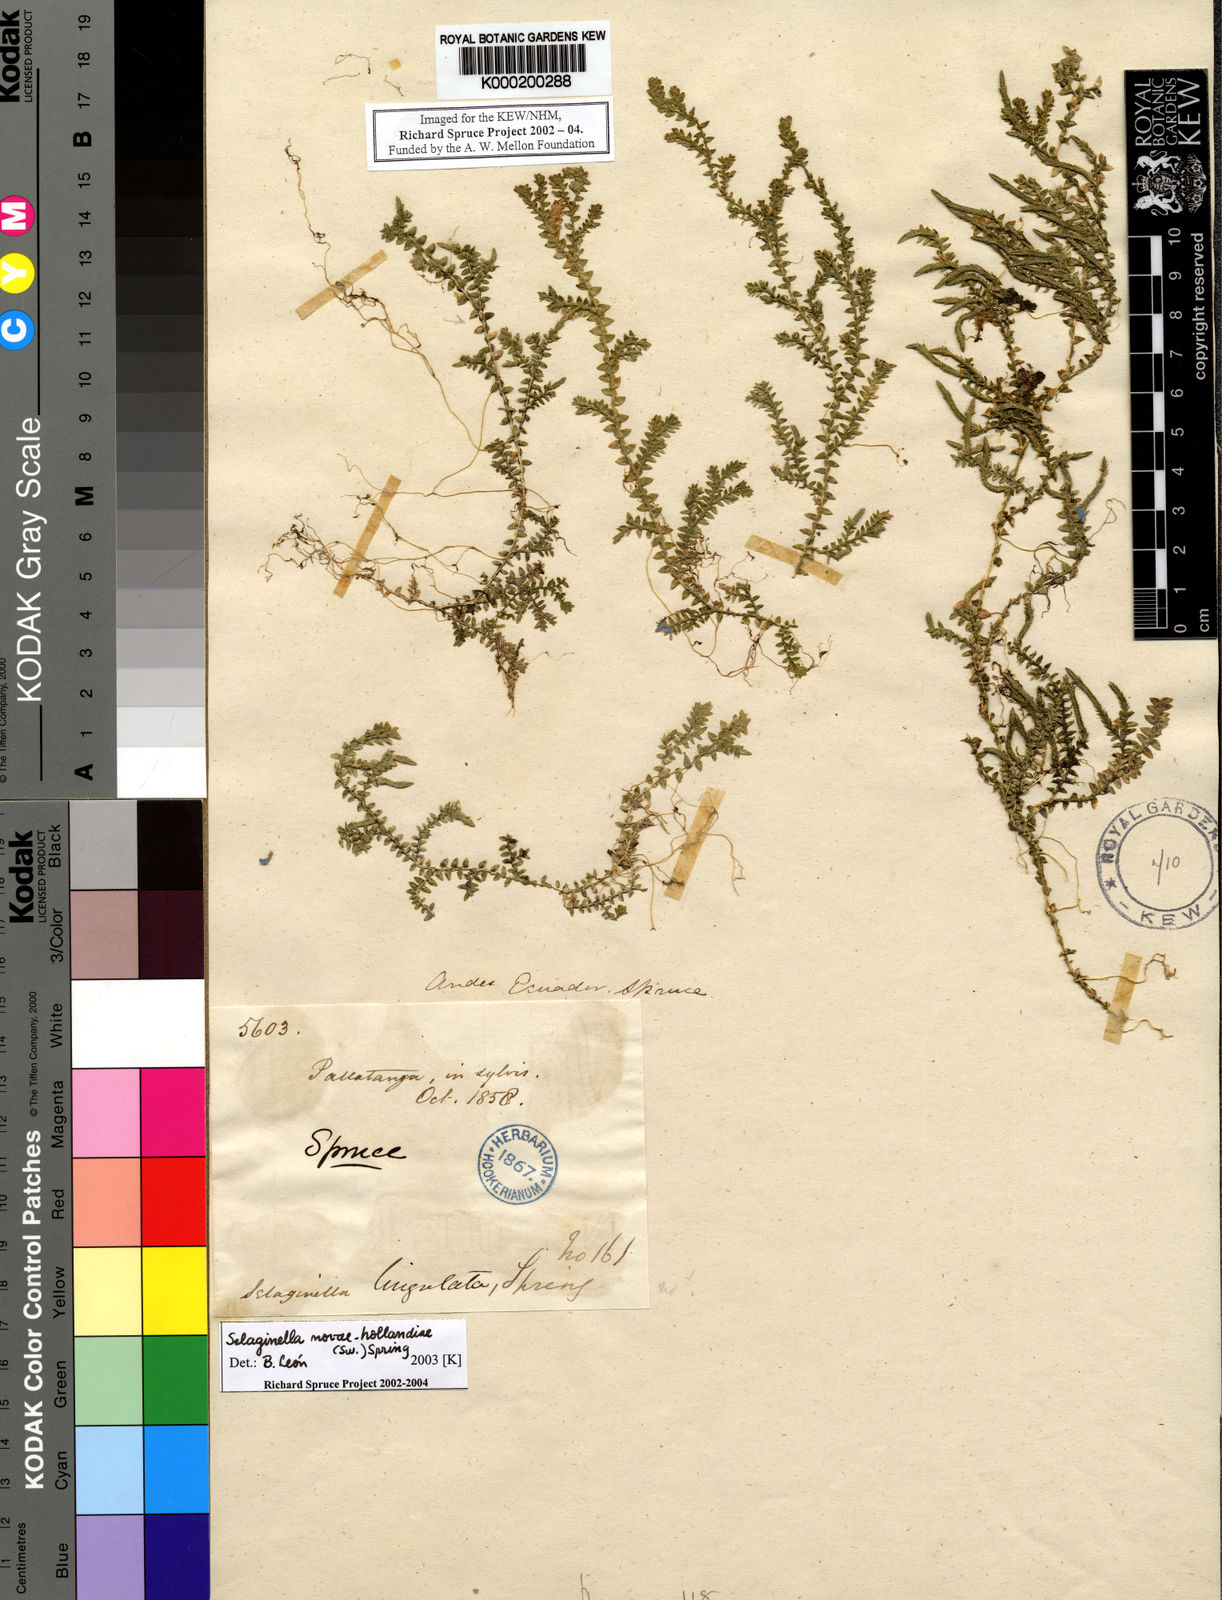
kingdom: Plantae
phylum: Tracheophyta
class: Lycopodiopsida
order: Selaginellales
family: Selaginellaceae
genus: Selaginella
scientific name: Selaginella novae-hollandiae
